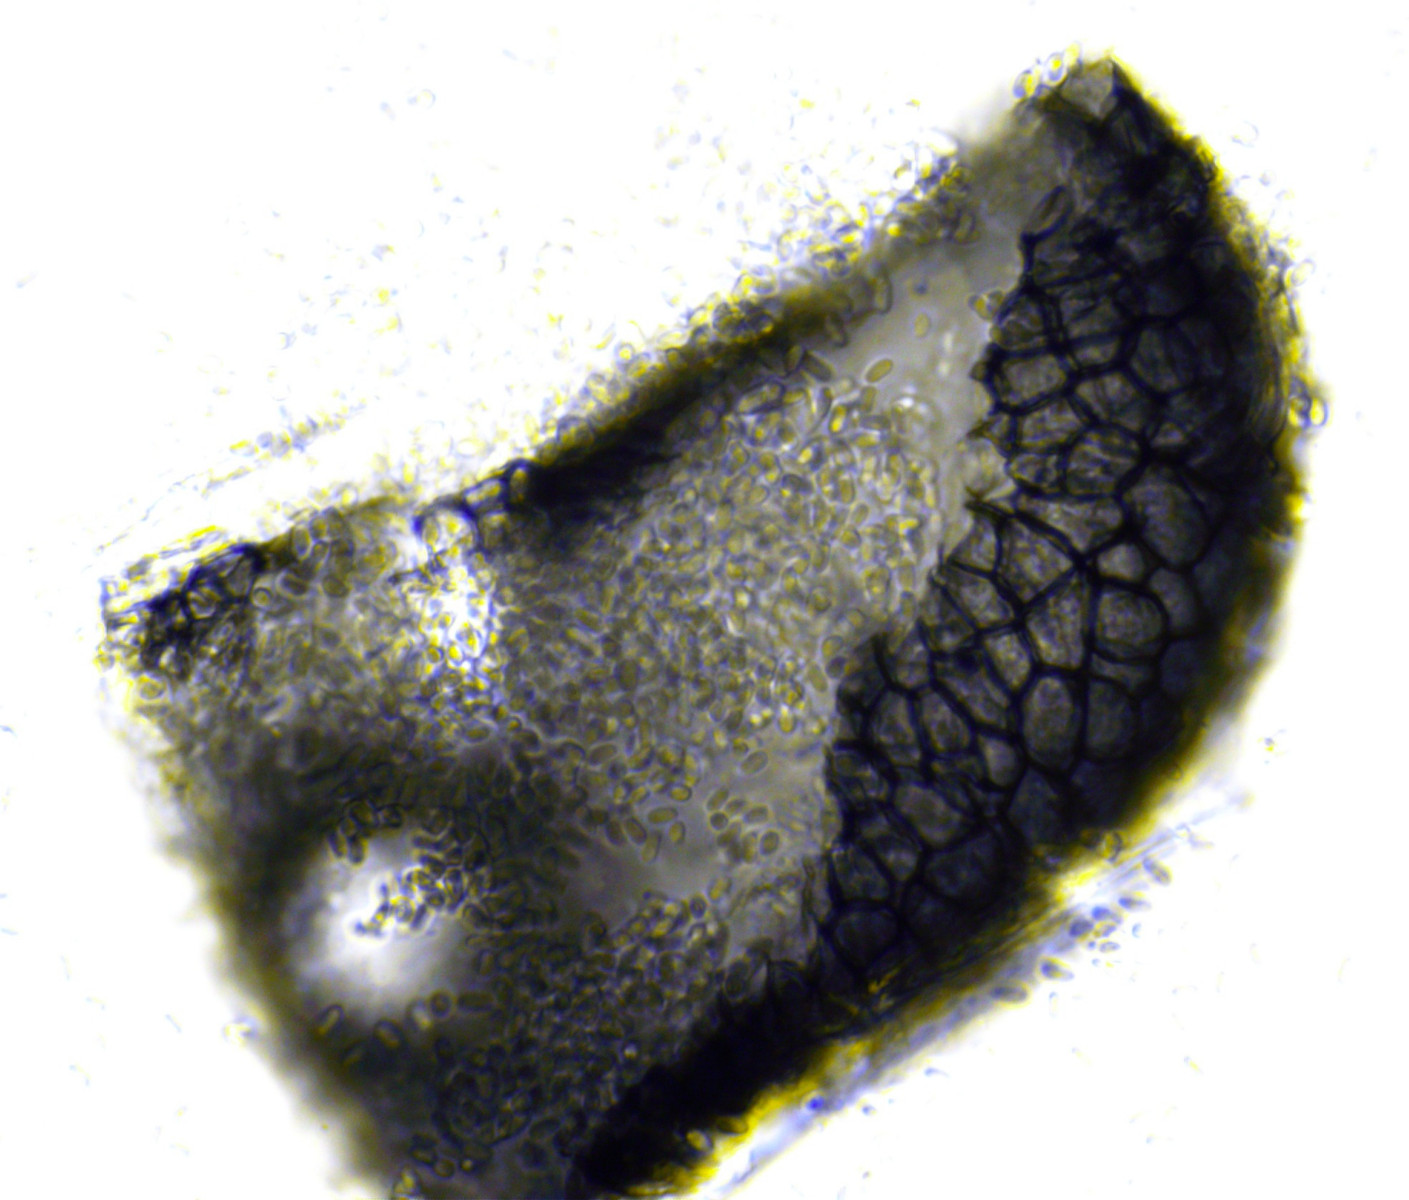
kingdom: Fungi
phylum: Ascomycota
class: Dothideomycetes
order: Pleosporales
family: Didymellaceae
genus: Phoma
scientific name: Phoma
